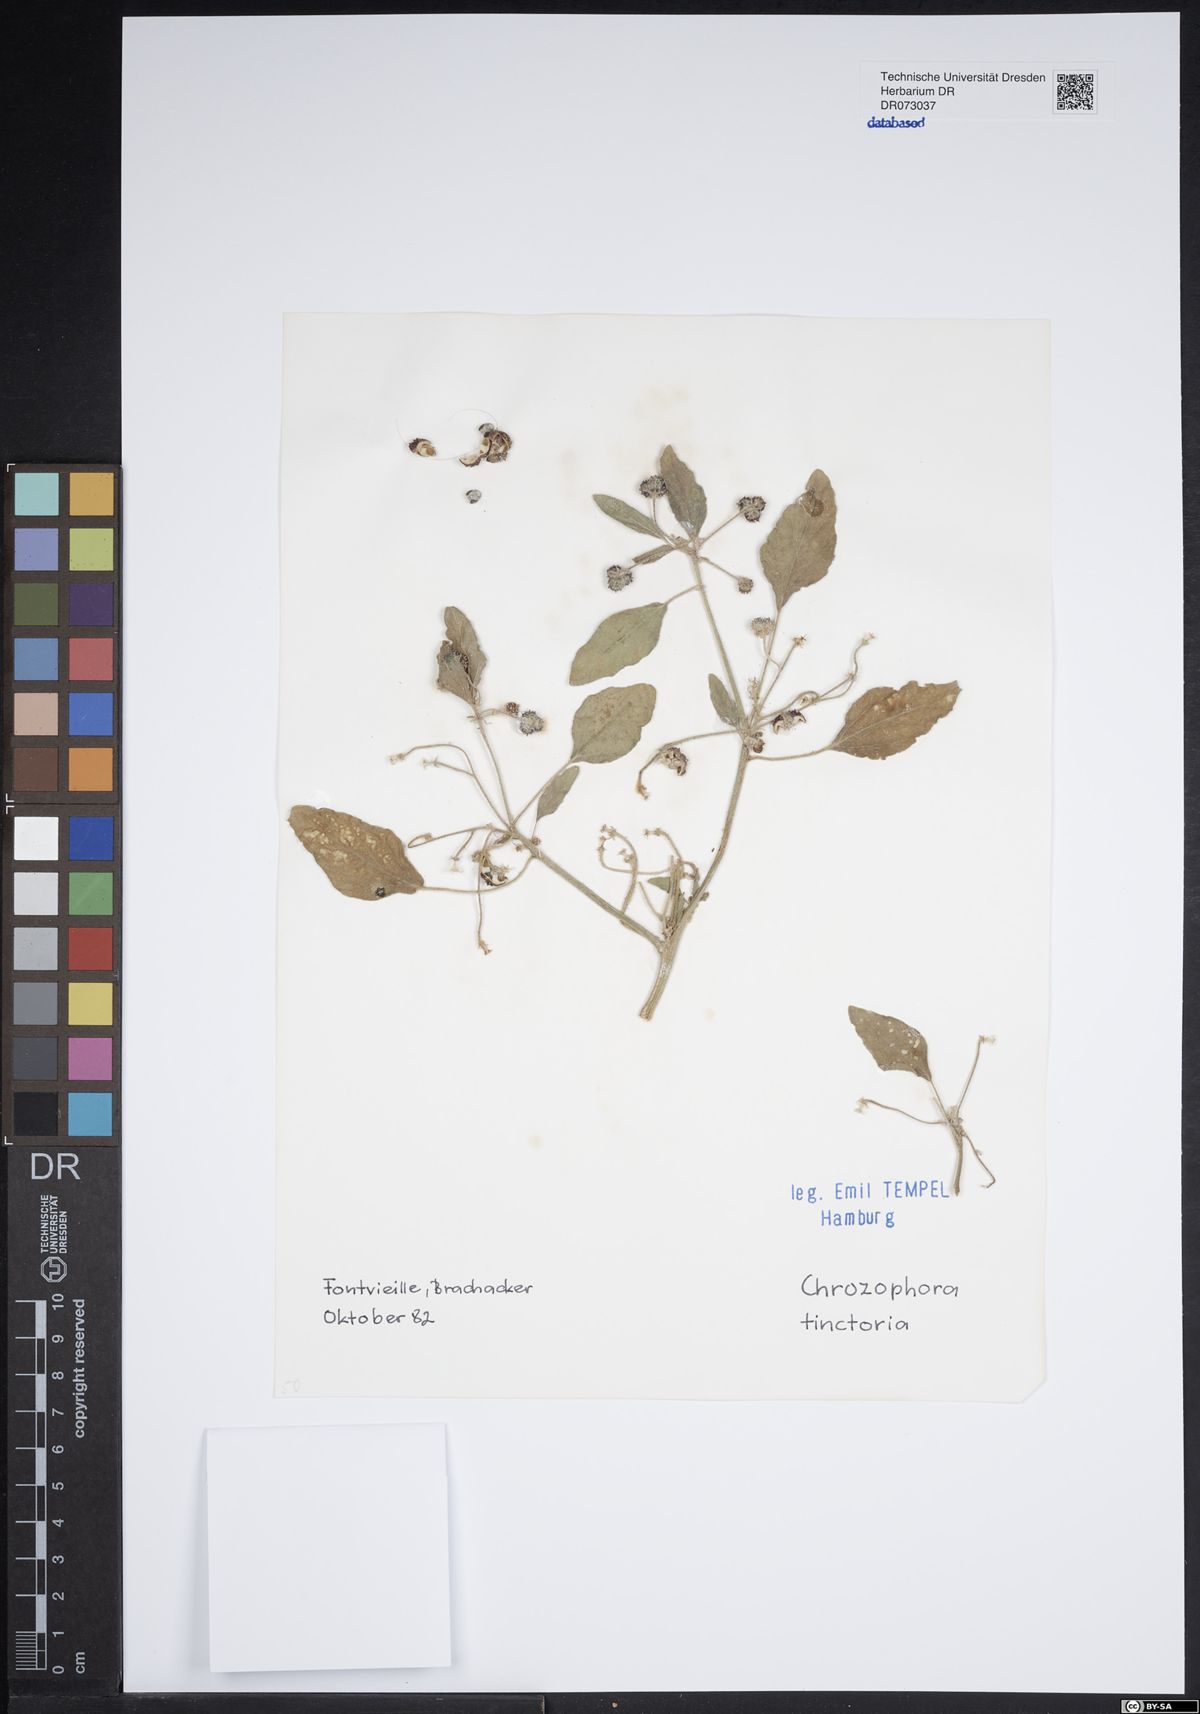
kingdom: Plantae
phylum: Tracheophyta
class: Magnoliopsida
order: Malpighiales
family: Euphorbiaceae
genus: Euphorbia
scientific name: Euphorbia serrata
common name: Serrate spurge
